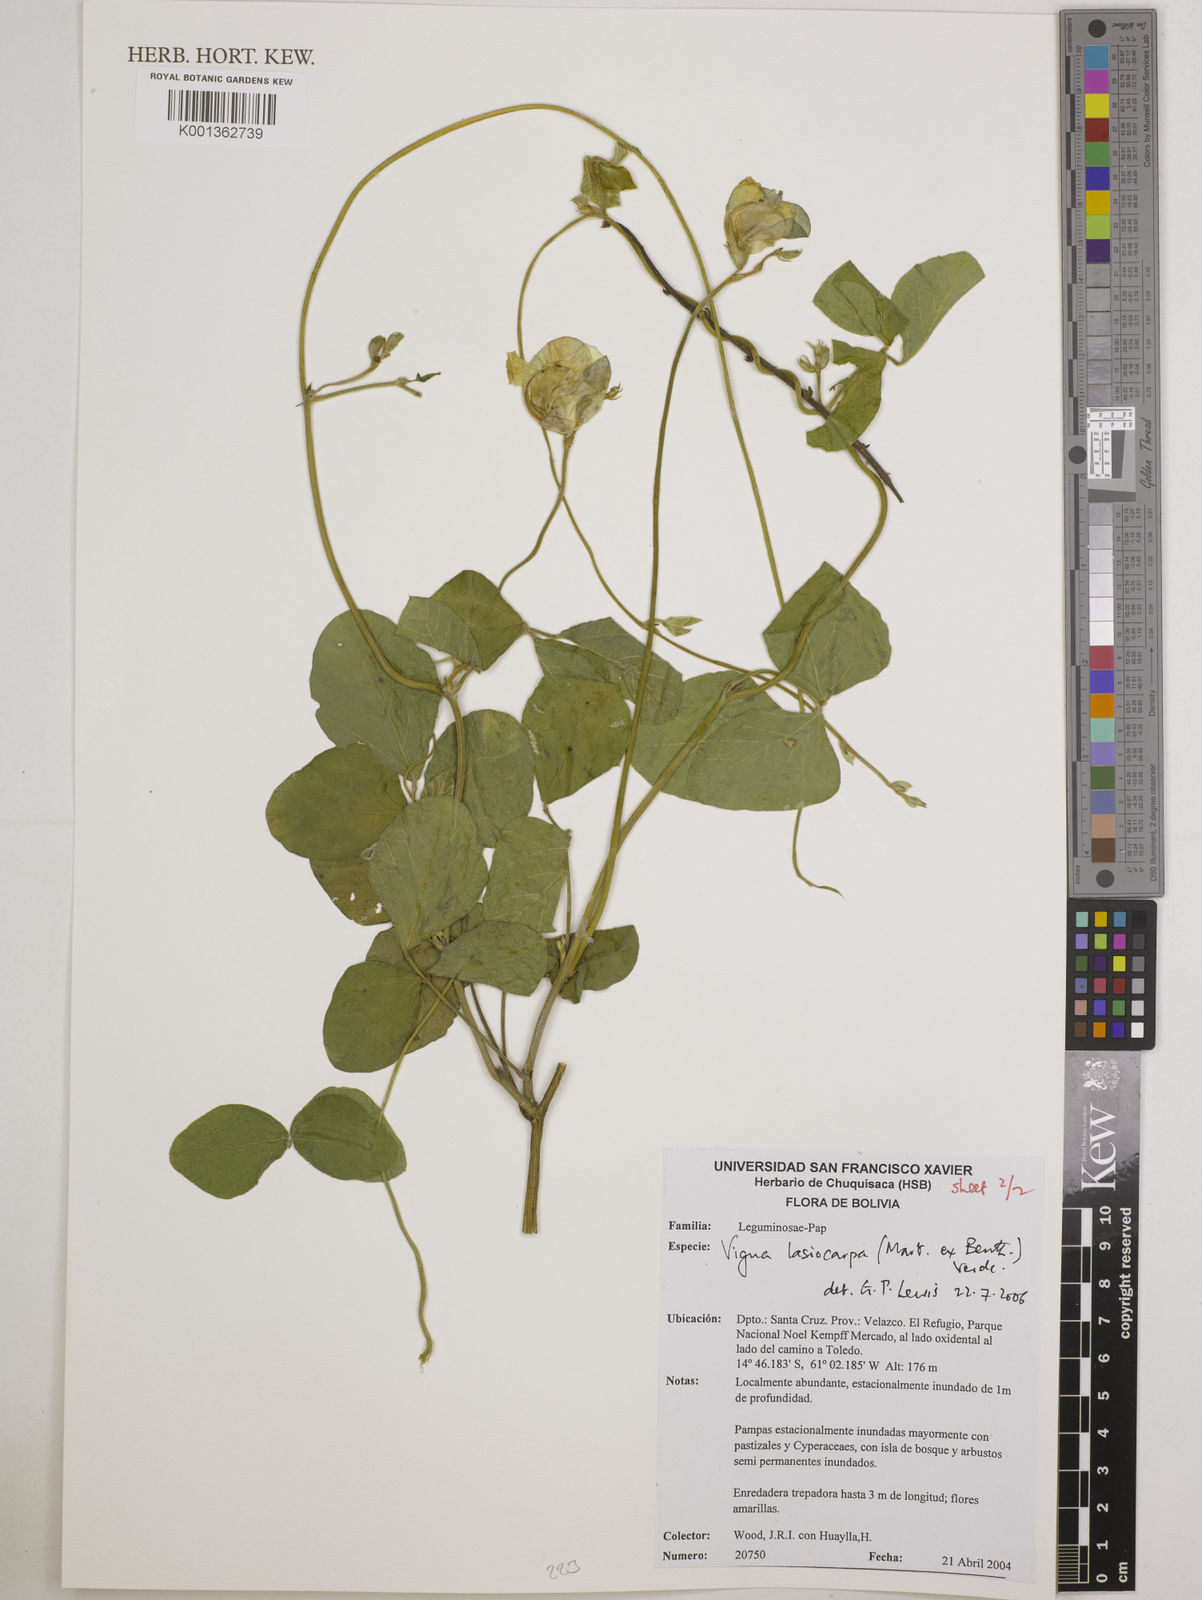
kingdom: Plantae
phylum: Tracheophyta
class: Magnoliopsida
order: Fabales
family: Fabaceae
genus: Vigna
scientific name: Vigna lasiocarpa
